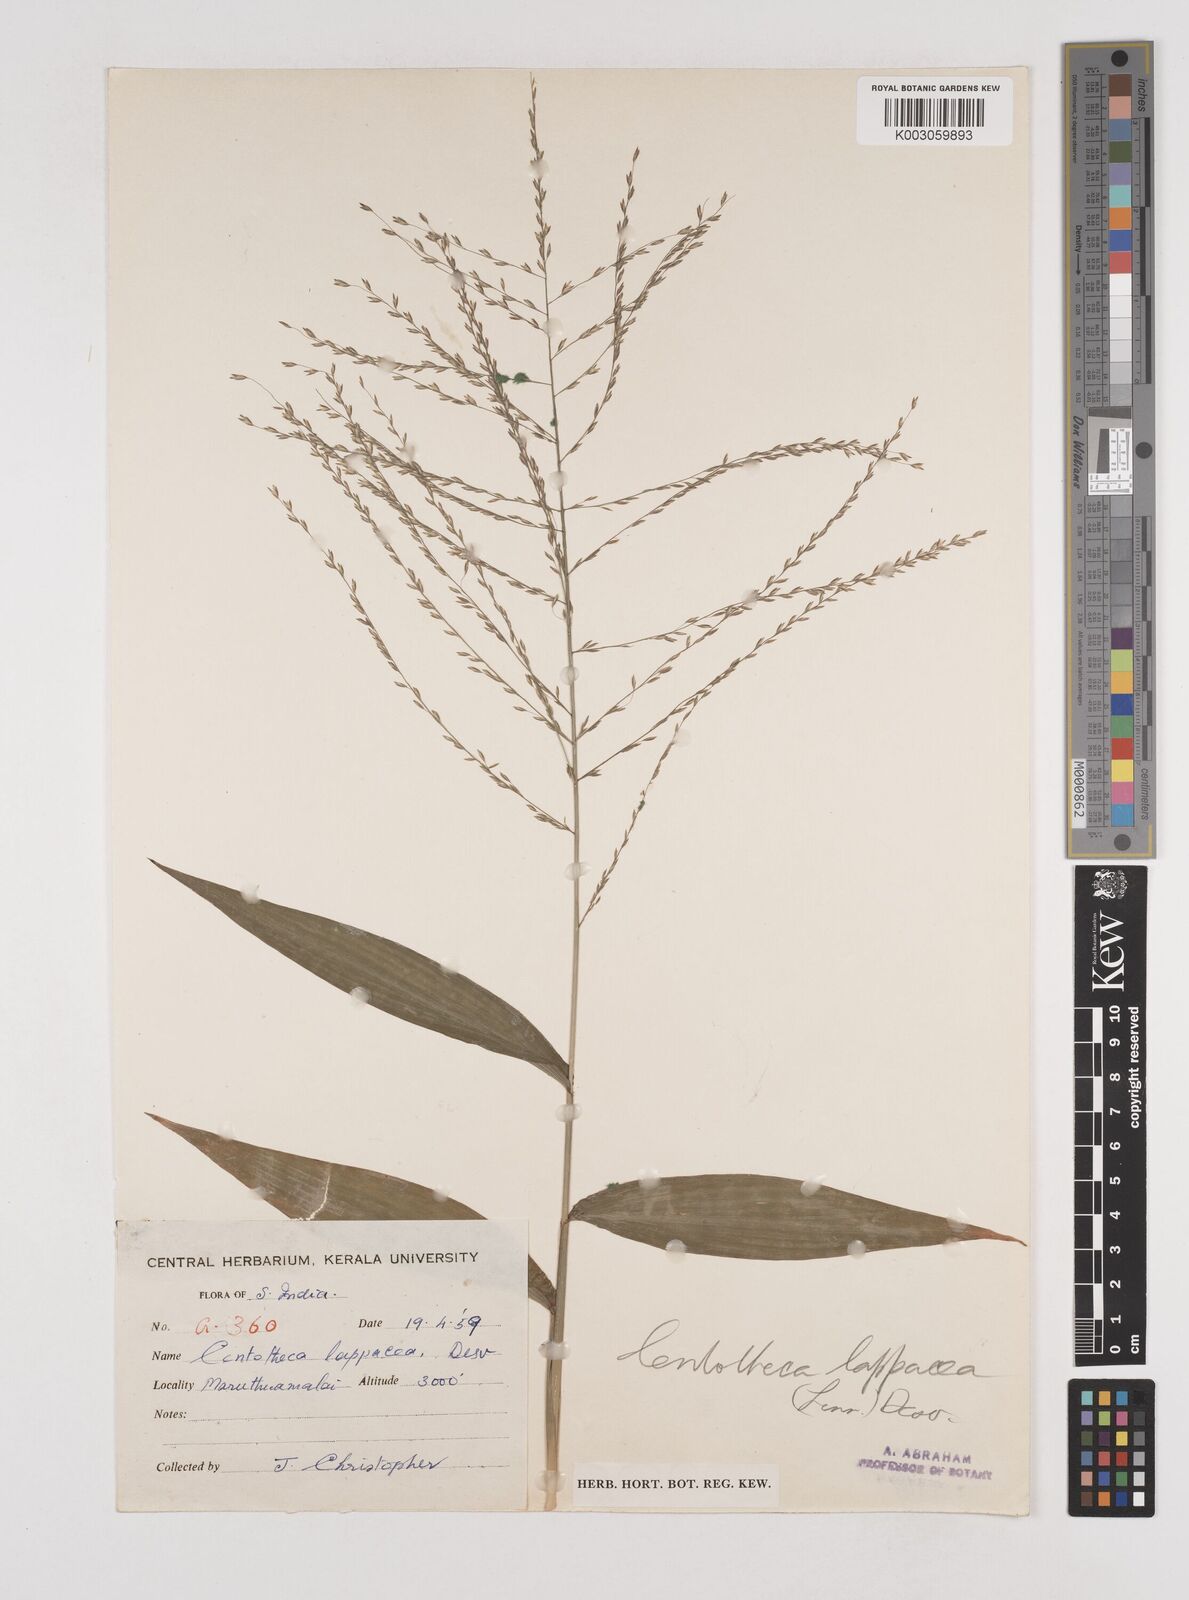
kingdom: Plantae
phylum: Tracheophyta
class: Liliopsida
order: Poales
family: Poaceae
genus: Centotheca
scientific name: Centotheca lappacea
